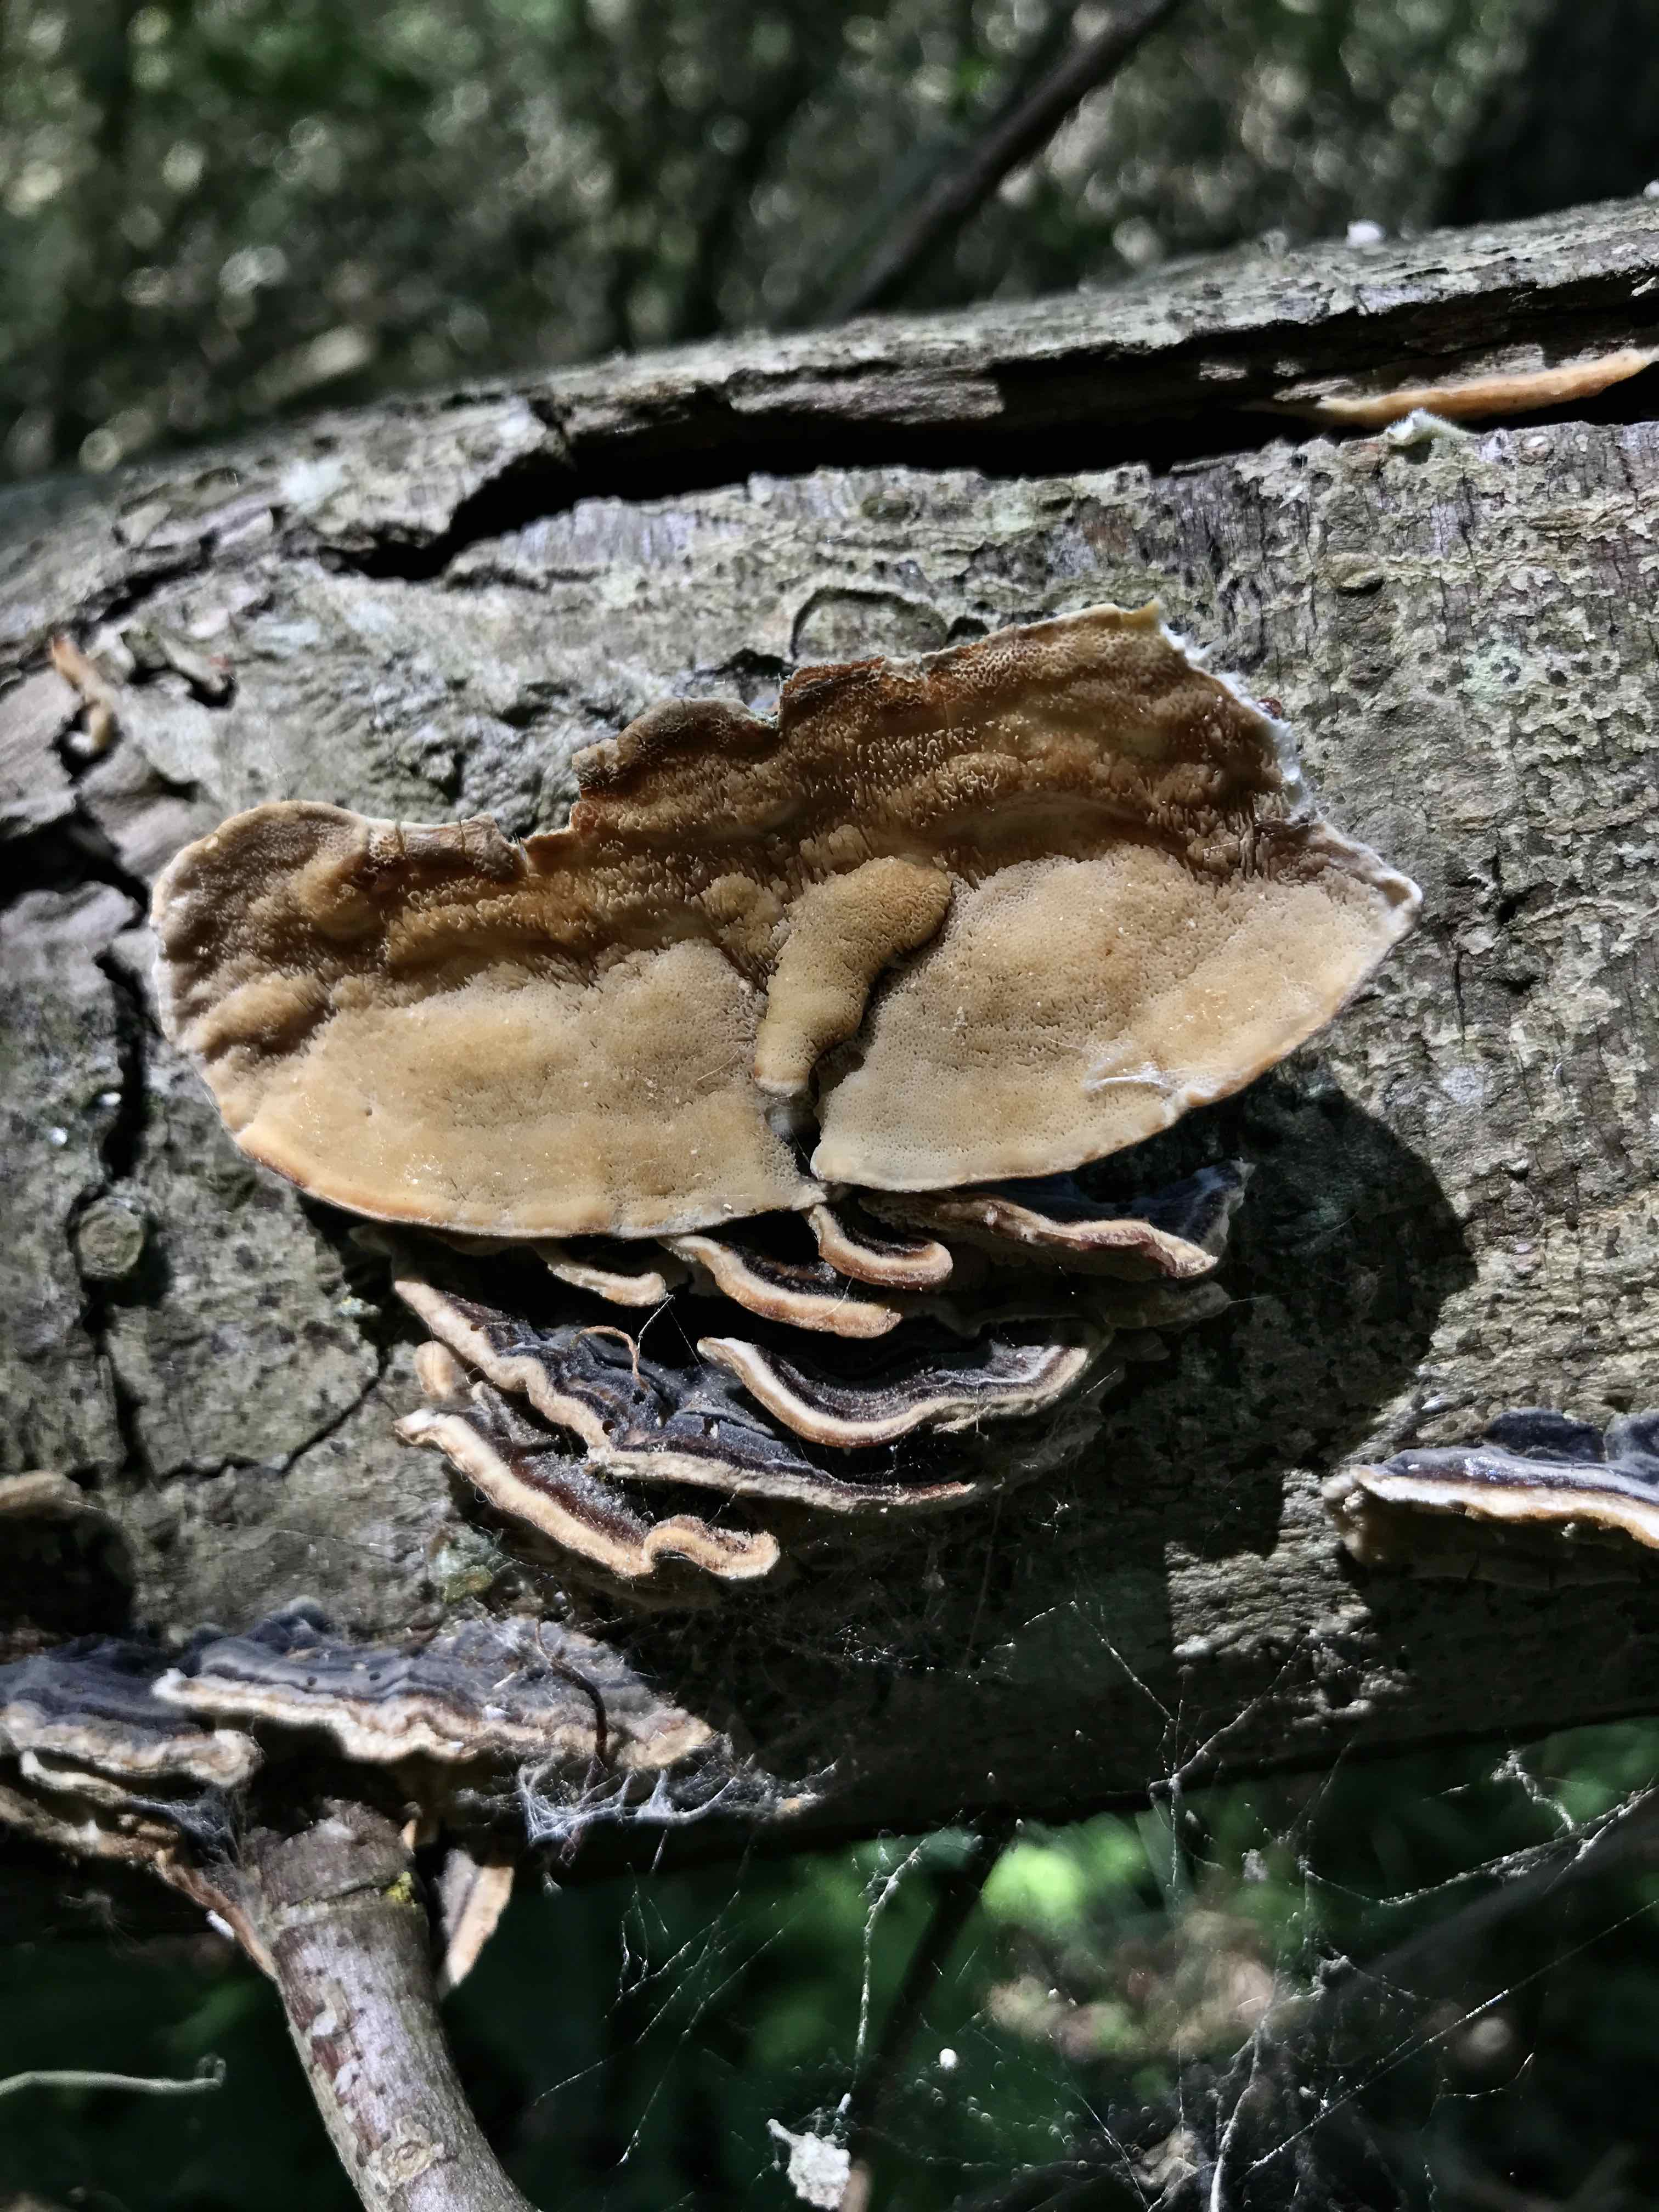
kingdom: Fungi
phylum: Basidiomycota
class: Agaricomycetes
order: Polyporales
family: Polyporaceae
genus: Trametes
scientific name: Trametes versicolor
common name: broget læderporesvamp
